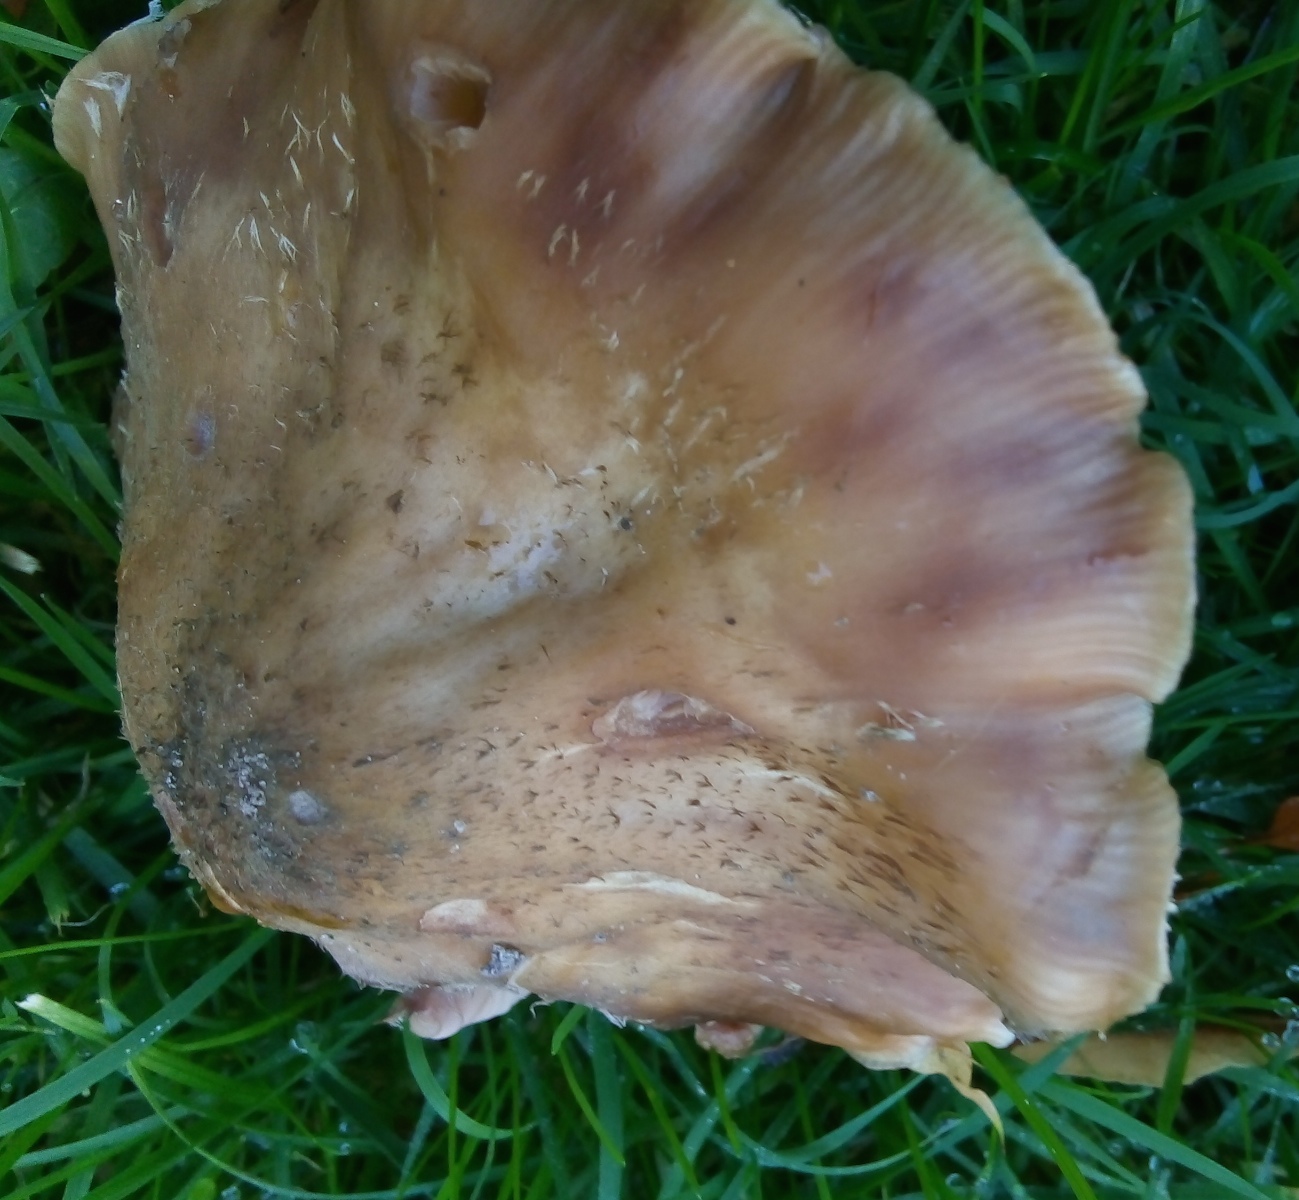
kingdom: Fungi
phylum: Basidiomycota
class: Agaricomycetes
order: Agaricales
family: Physalacriaceae
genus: Armillaria
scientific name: Armillaria lutea
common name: køllestokket honningsvamp
